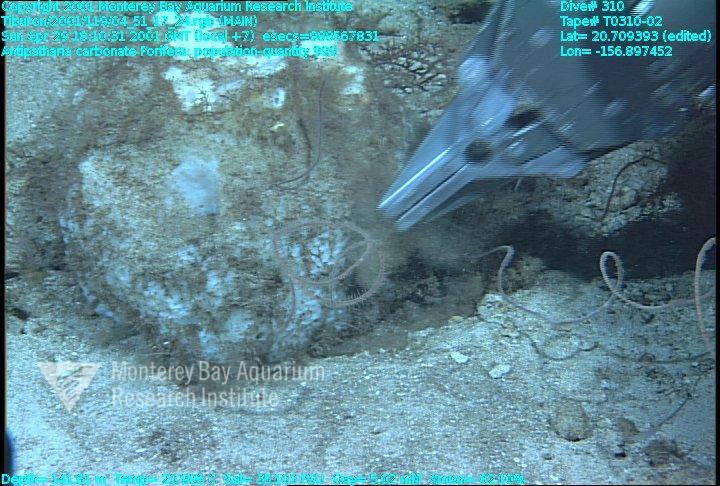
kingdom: Animalia
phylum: Porifera
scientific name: Porifera
